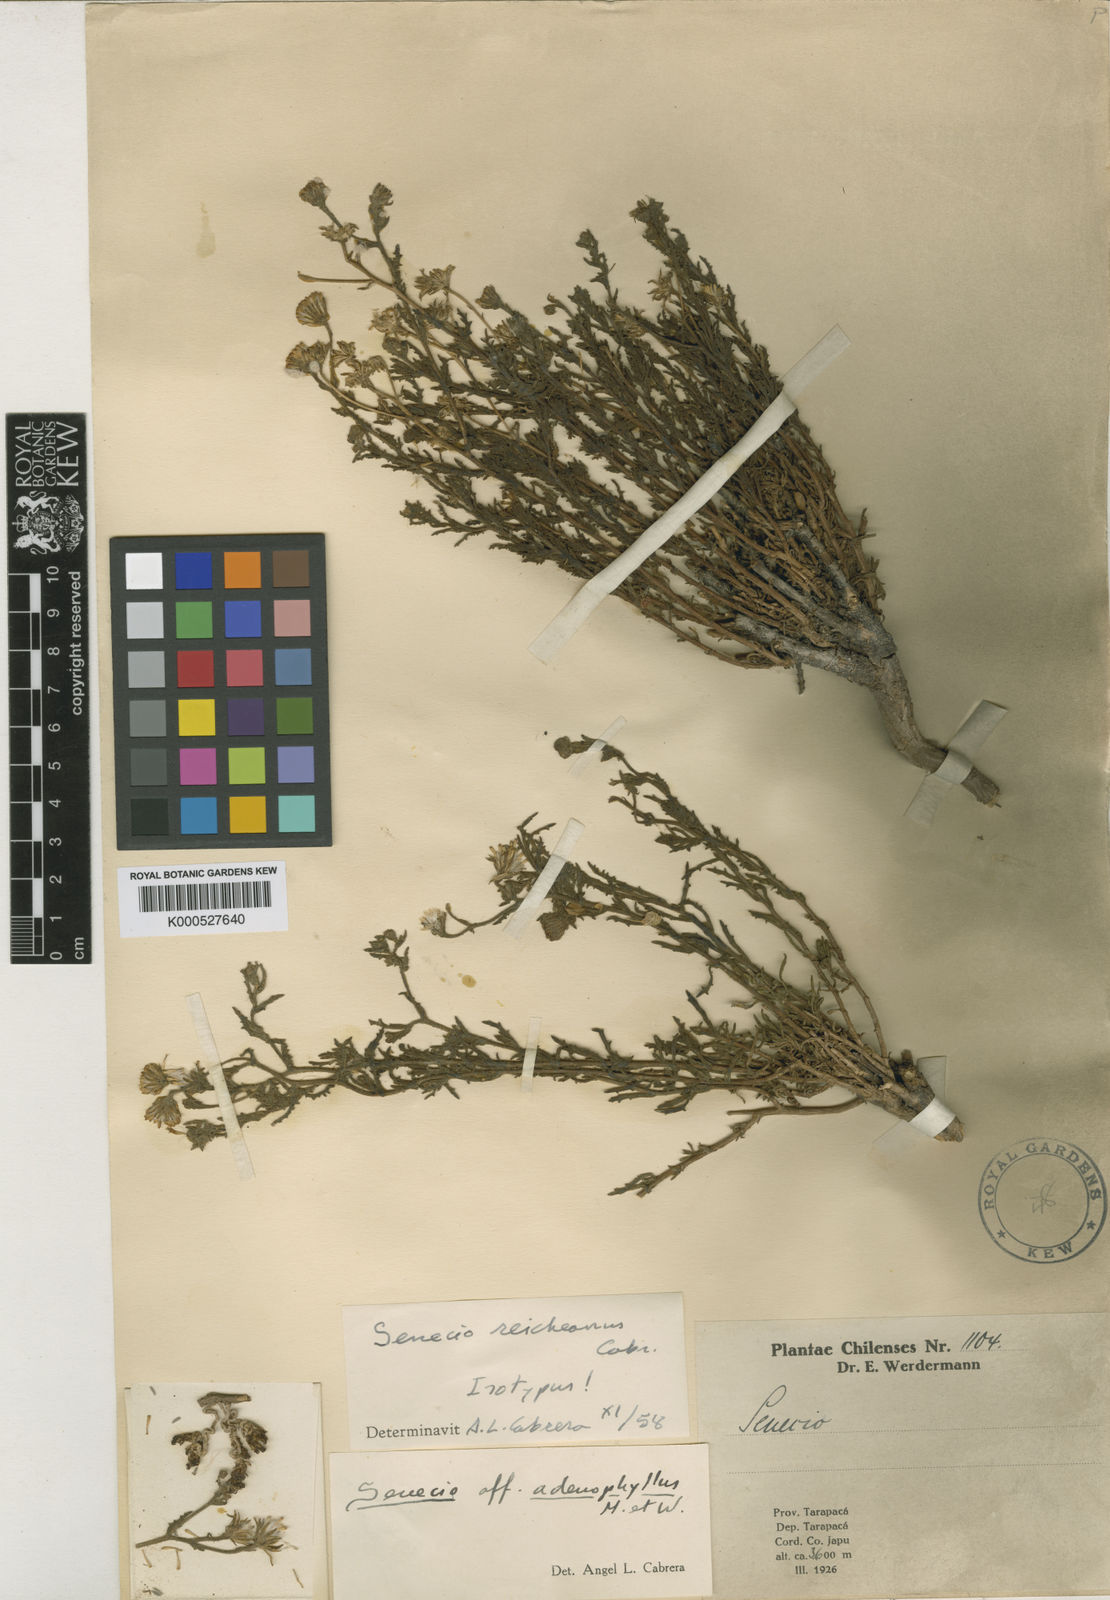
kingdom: Plantae
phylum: Tracheophyta
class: Magnoliopsida
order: Asterales
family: Asteraceae
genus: Senecio
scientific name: Senecio reicheanus
